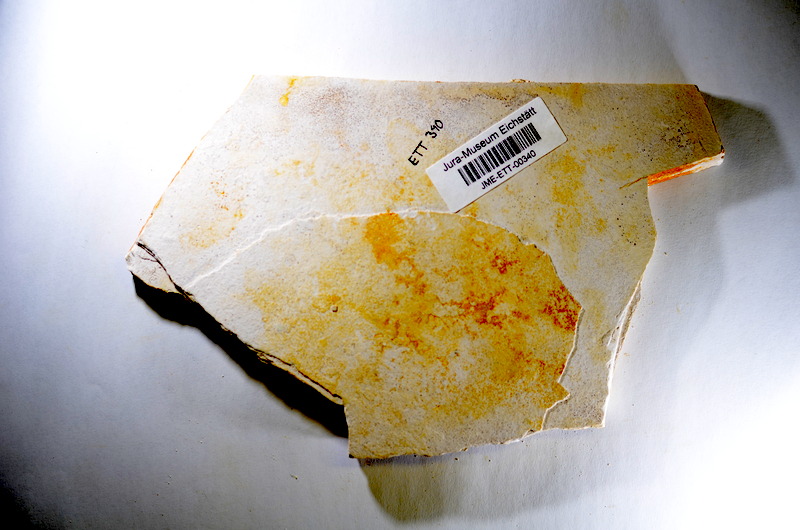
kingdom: Animalia
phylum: Chordata
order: Salmoniformes
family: Orthogonikleithridae
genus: Orthogonikleithrus
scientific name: Orthogonikleithrus hoelli
